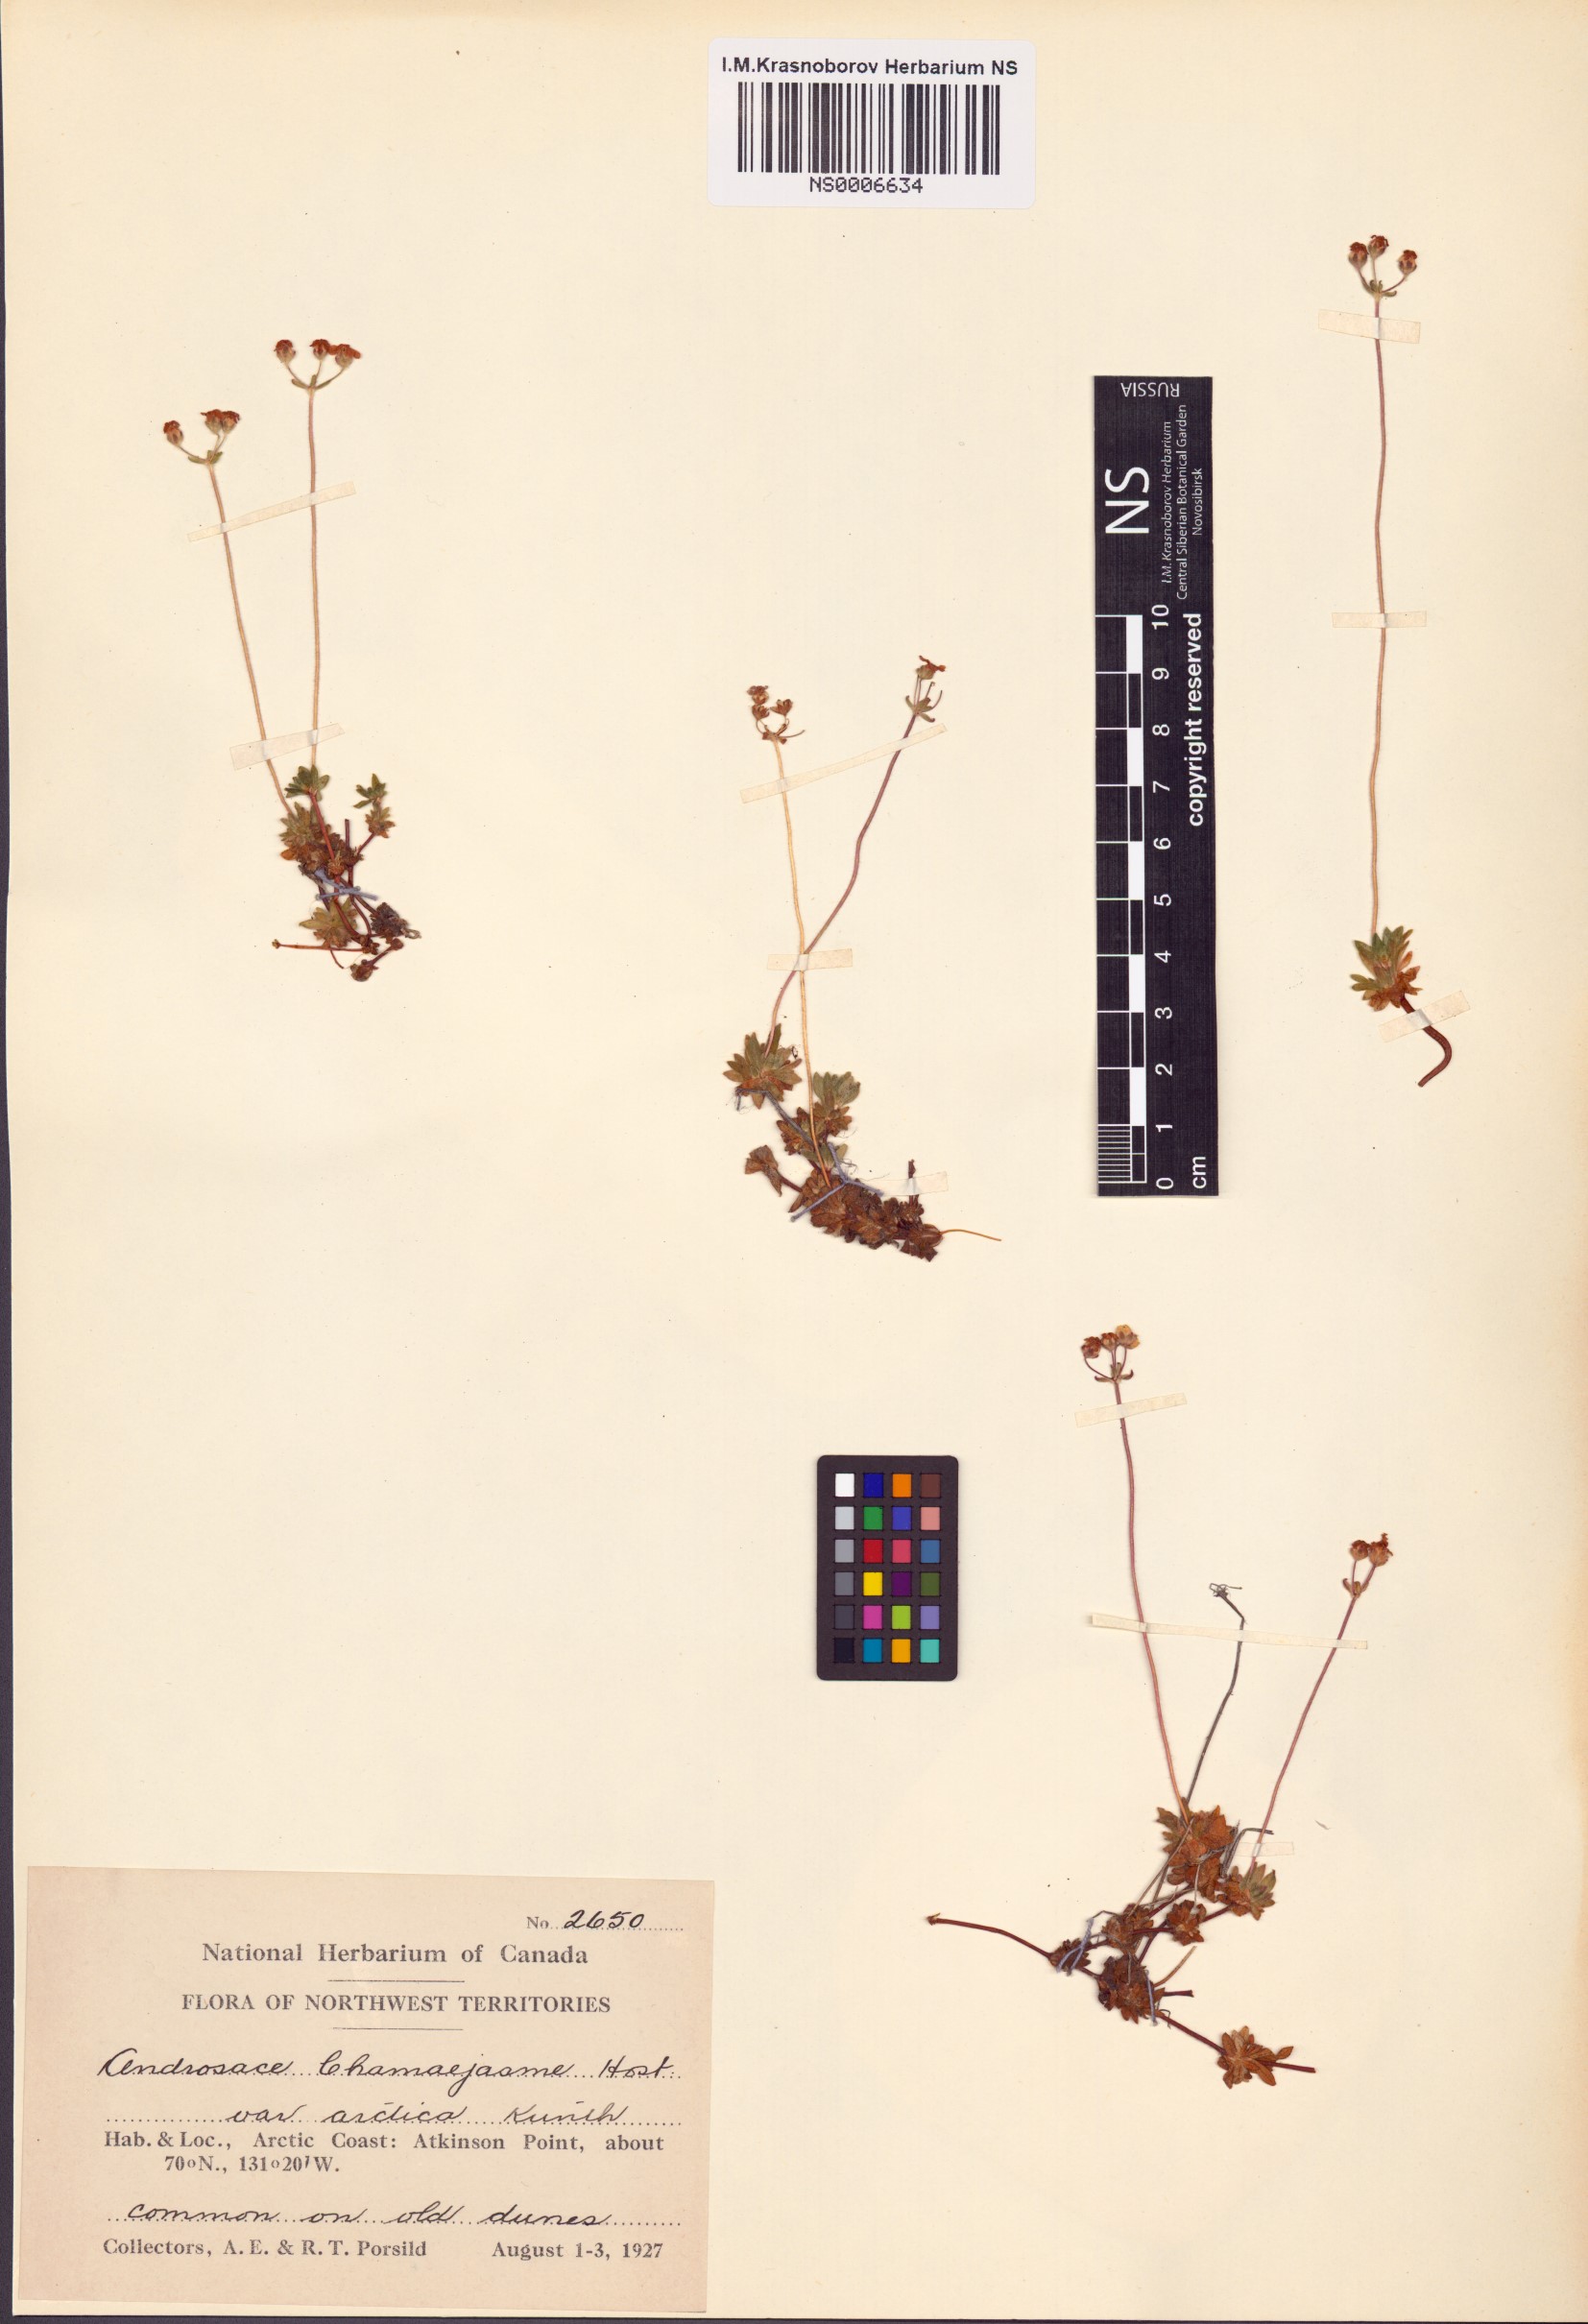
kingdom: Plantae
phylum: Tracheophyta
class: Magnoliopsida
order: Ericales
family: Primulaceae
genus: Androsace
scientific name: Androsace chamaejasme
